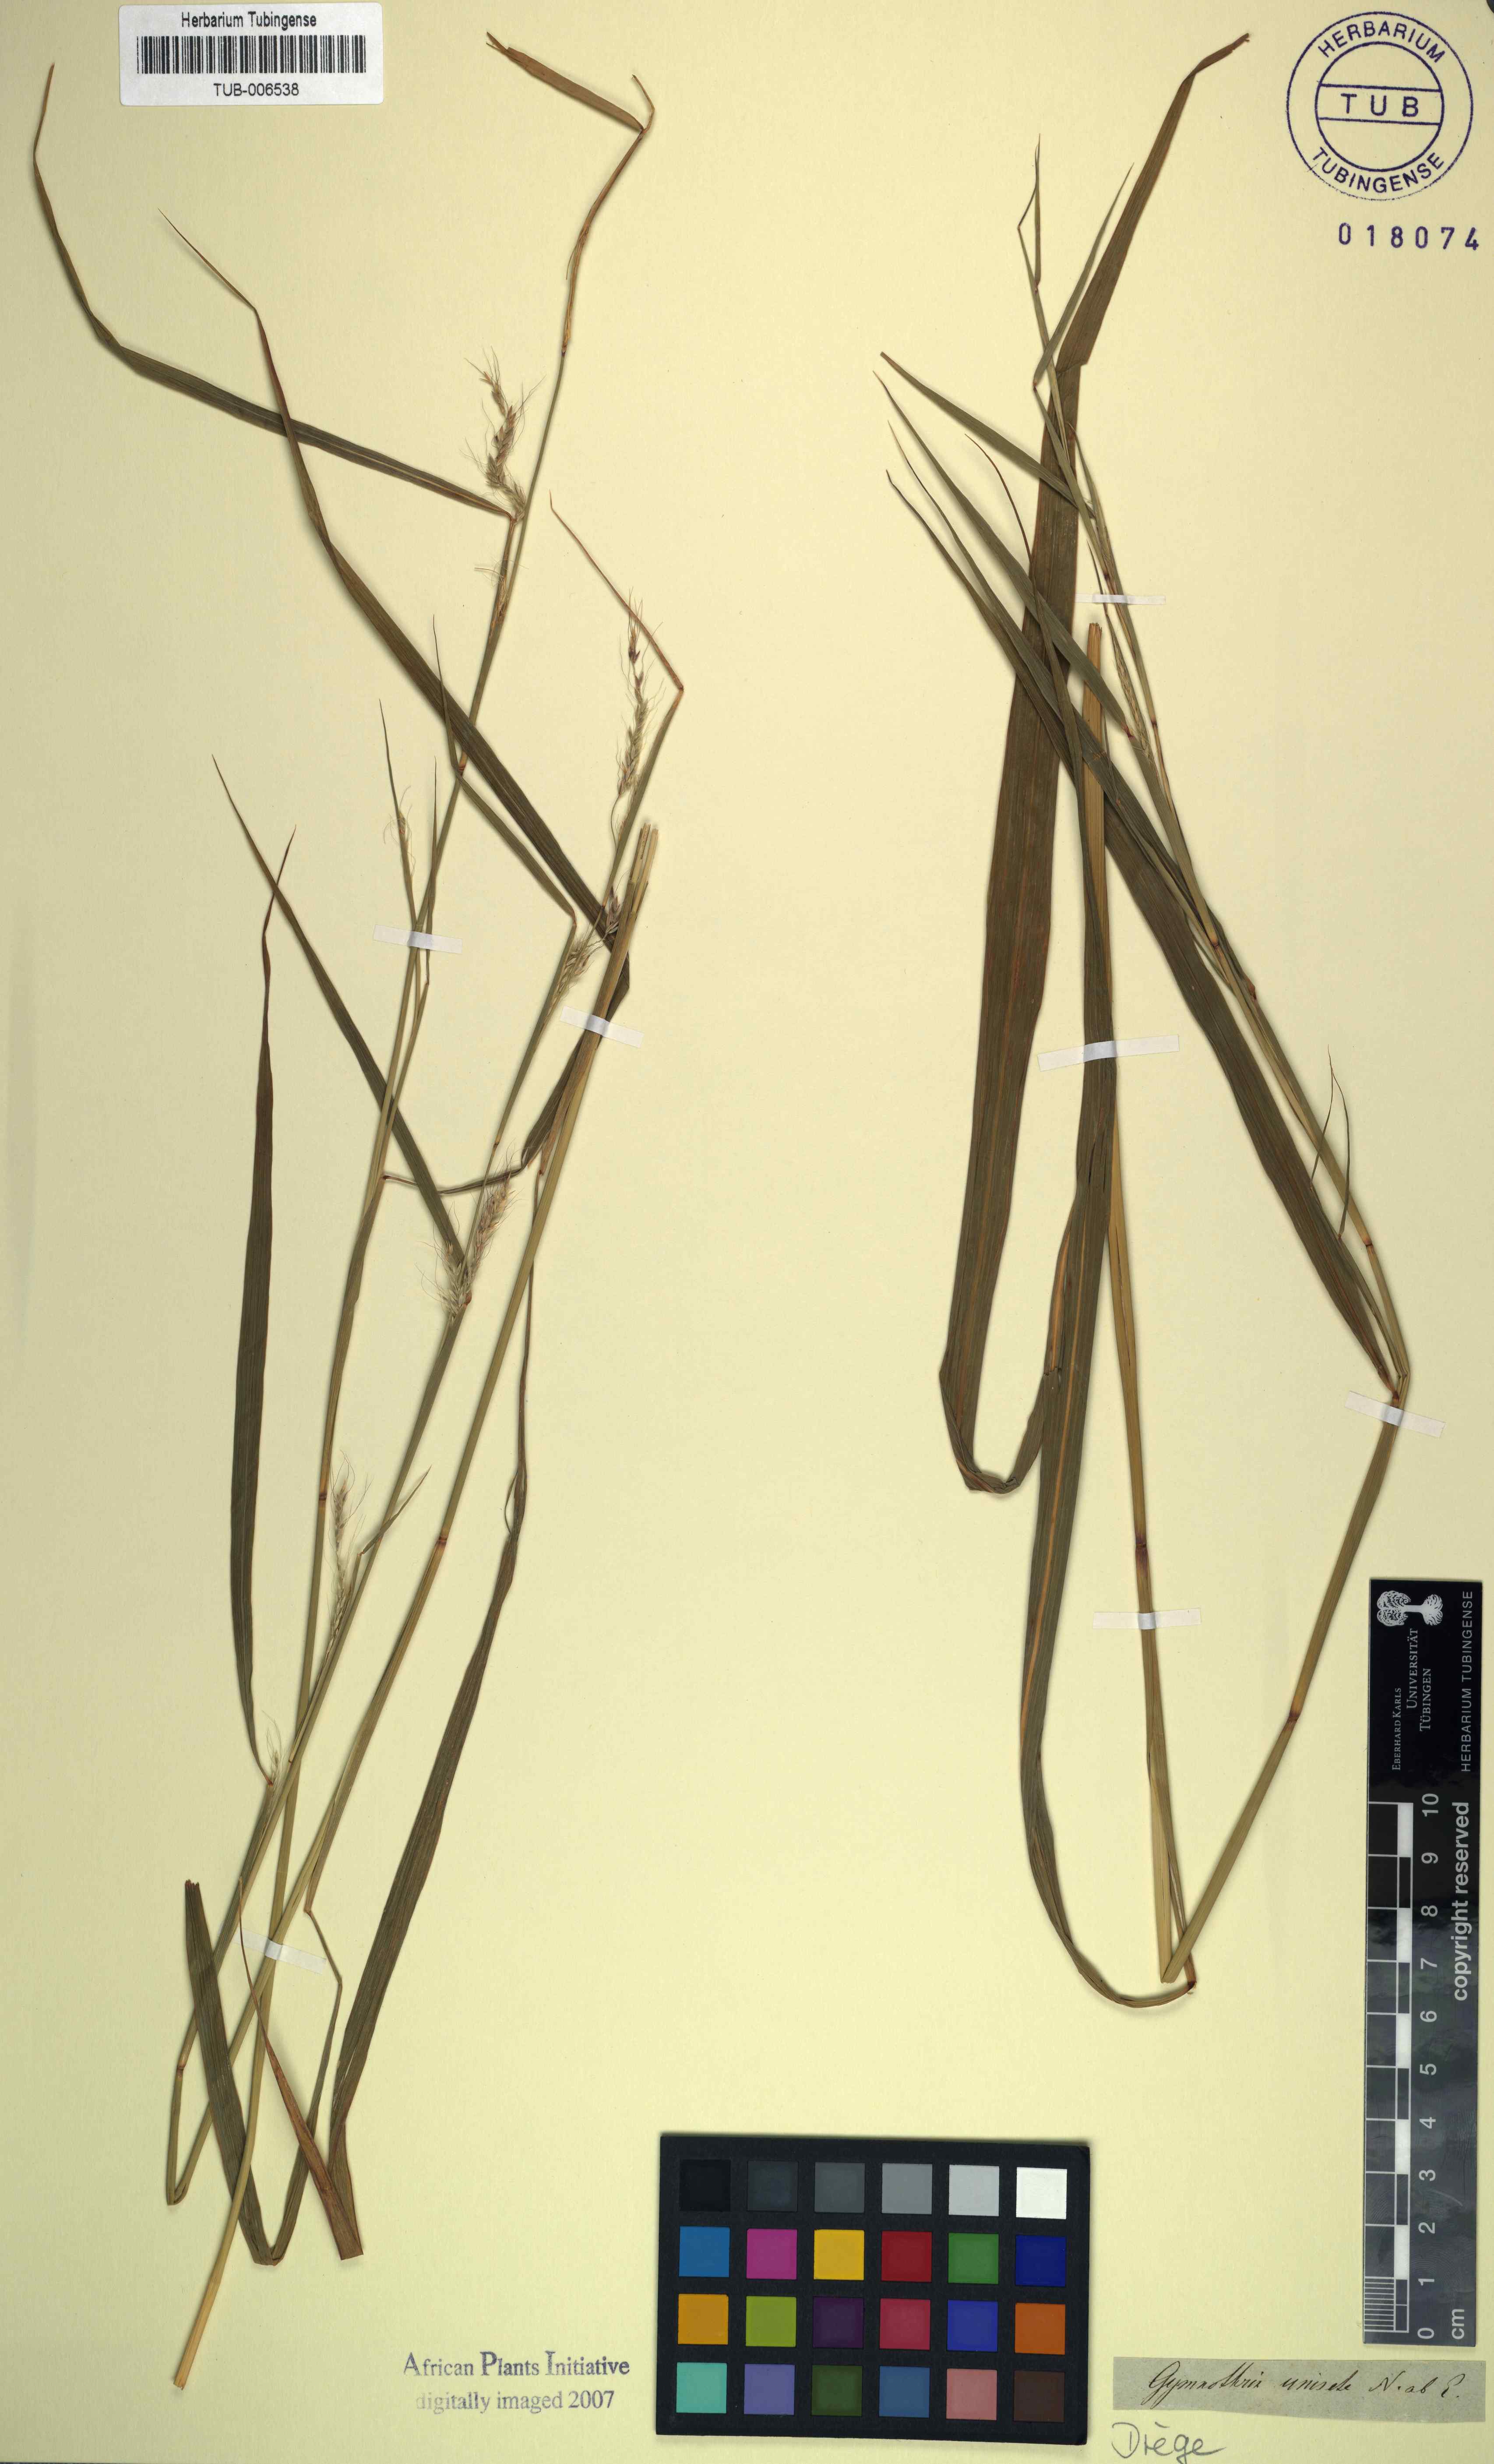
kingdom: Plantae
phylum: Tracheophyta
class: Liliopsida
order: Poales
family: Poaceae
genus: Cenchrus
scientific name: Cenchrus unisetus
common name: Natal grass
